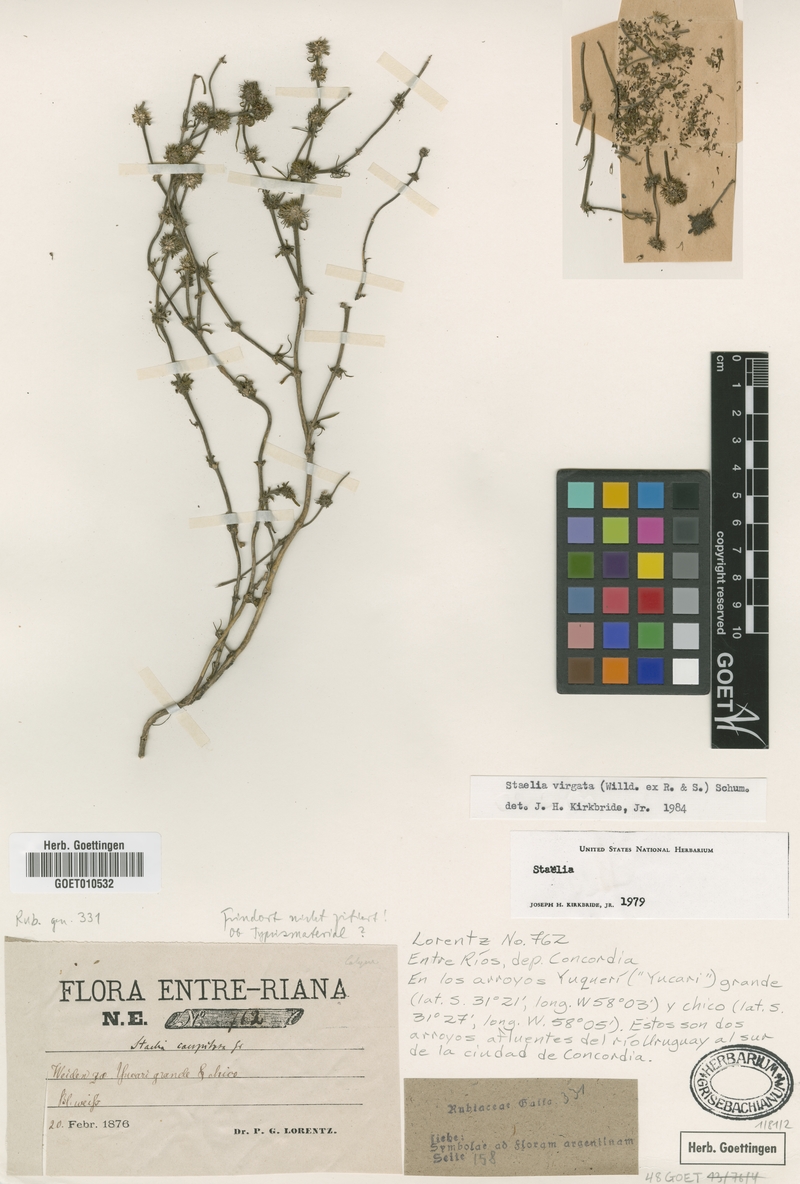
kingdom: Plantae
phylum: Tracheophyta
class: Magnoliopsida
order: Gentianales
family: Rubiaceae
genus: Staelia
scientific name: Staelia virgata
